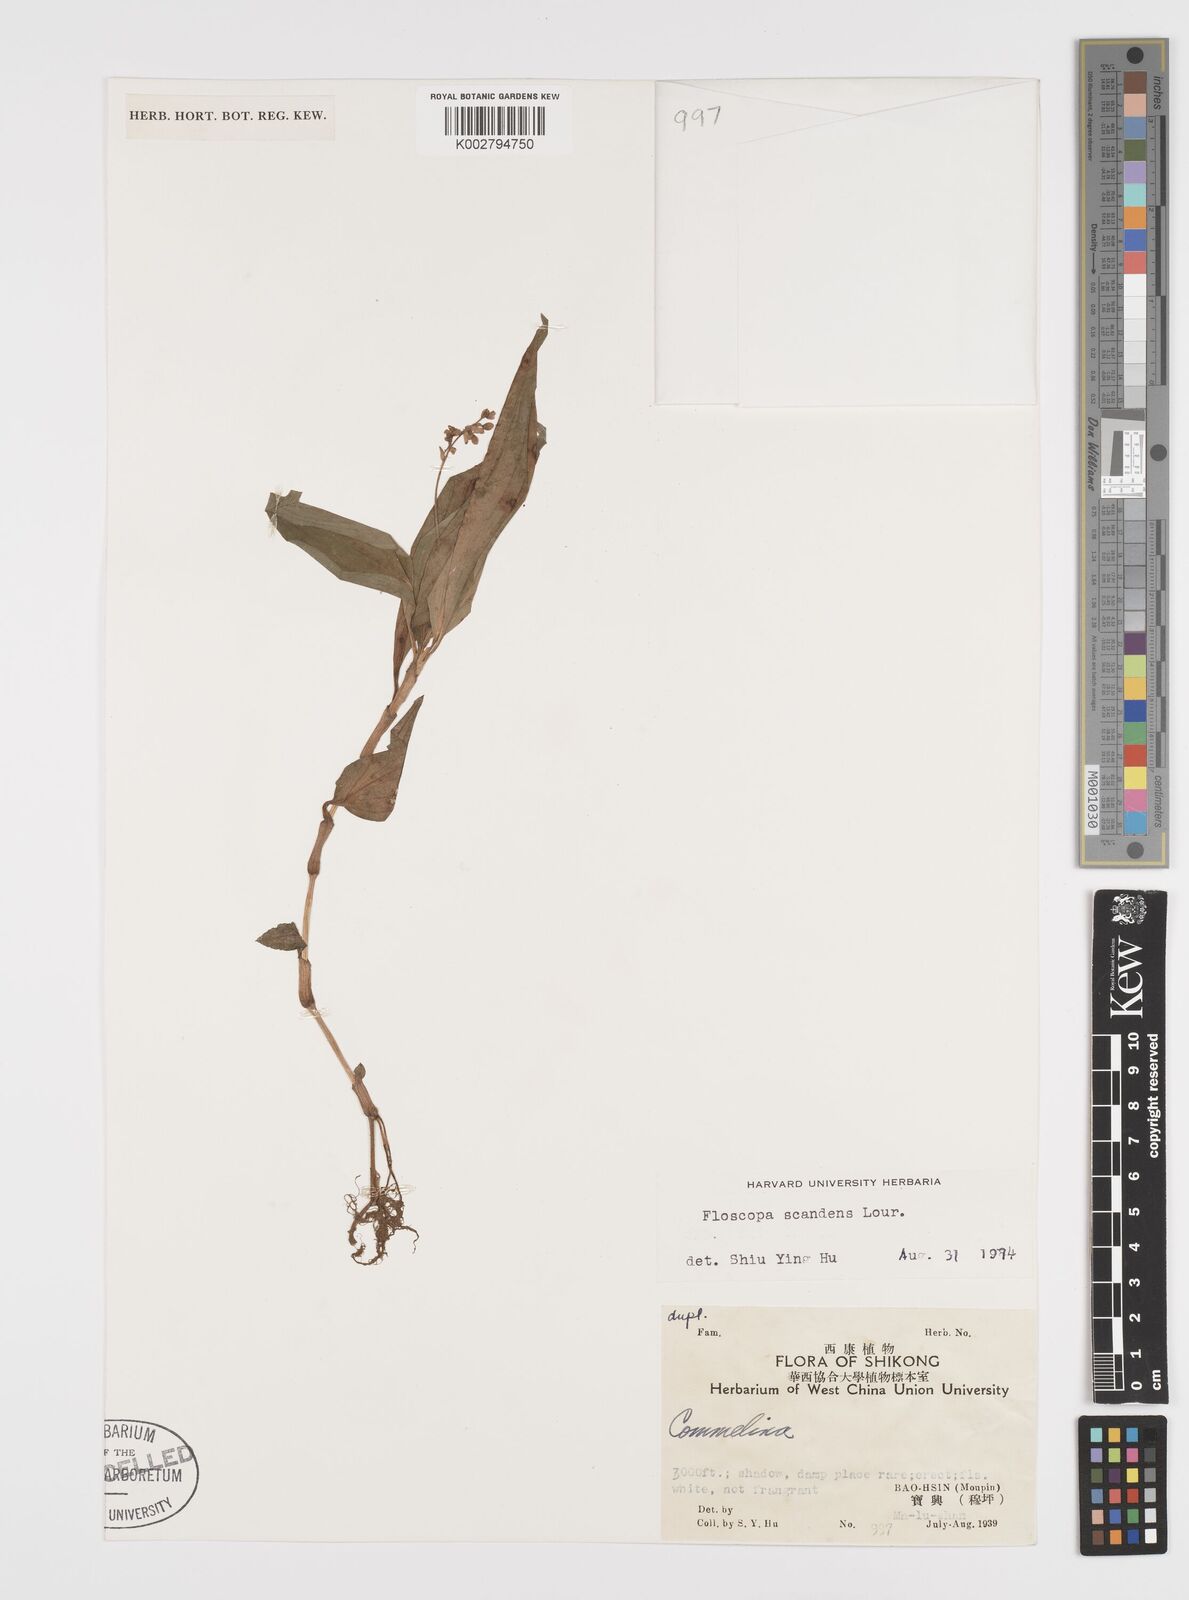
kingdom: Plantae
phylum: Tracheophyta
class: Liliopsida
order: Commelinales
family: Commelinaceae
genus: Floscopa
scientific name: Floscopa scandens
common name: Climbing flower cup
